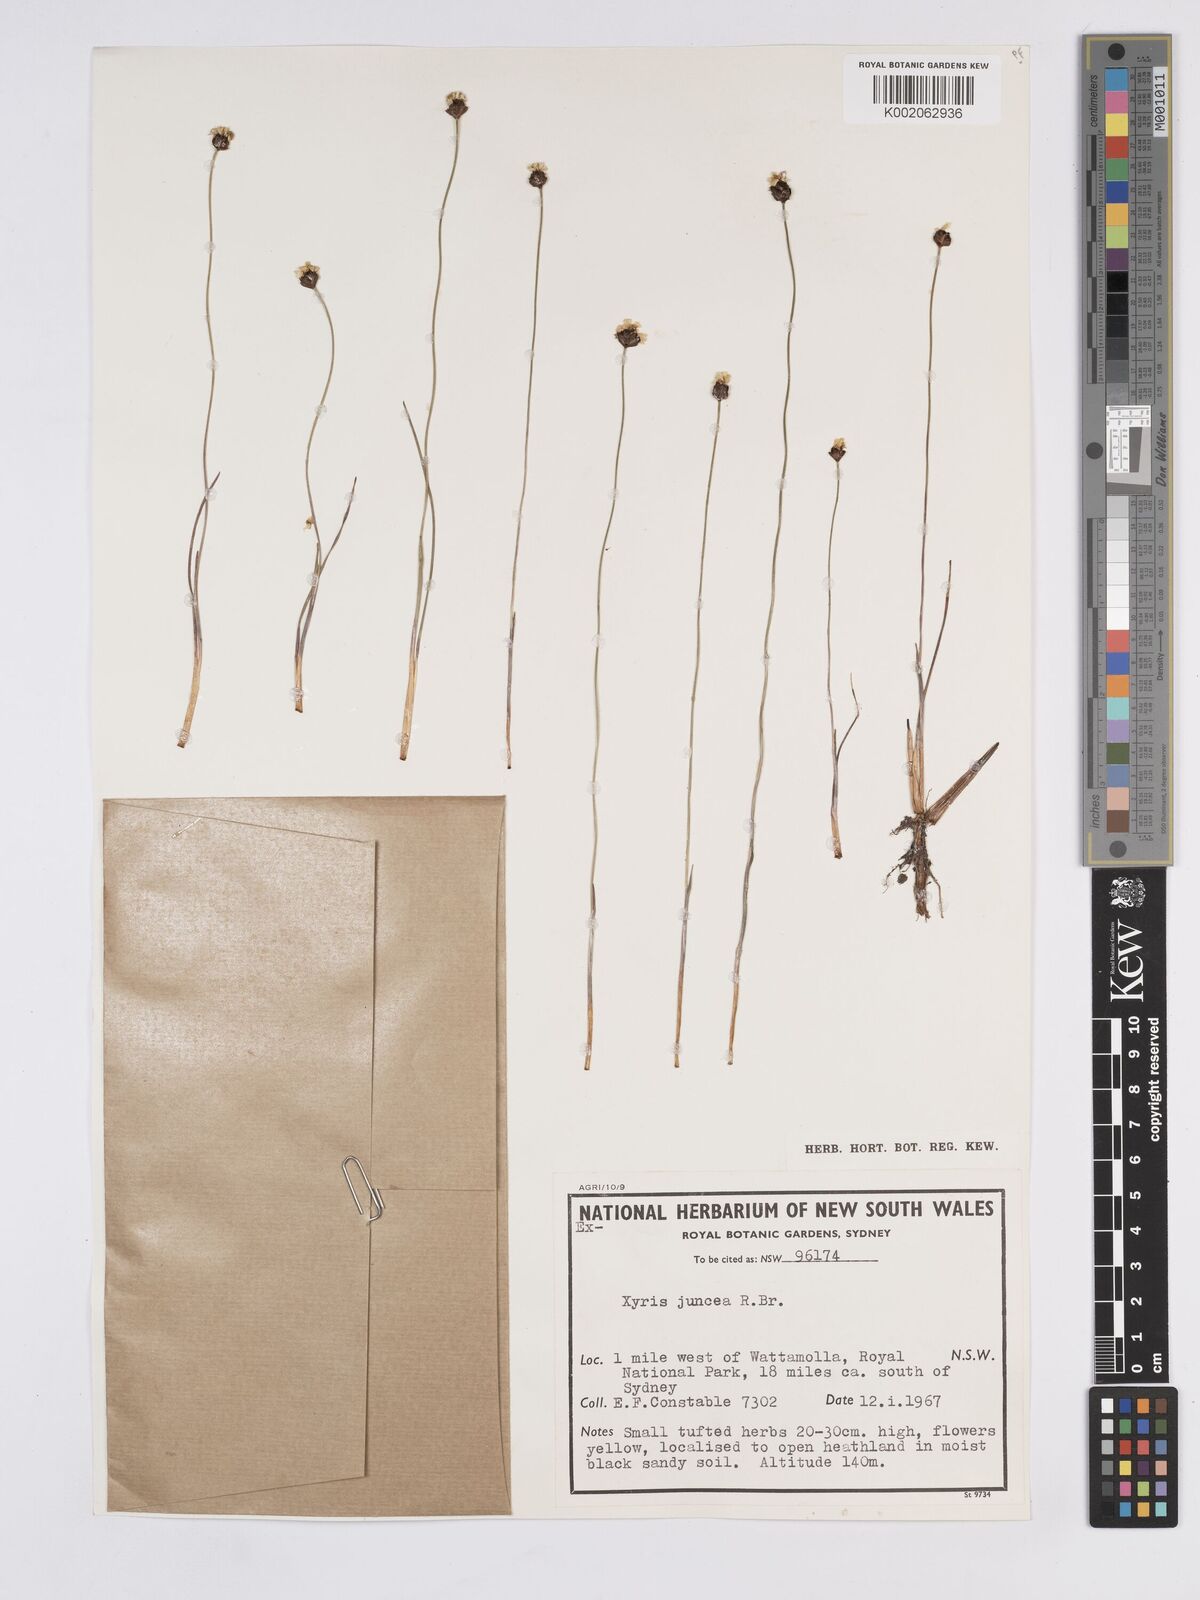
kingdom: Plantae
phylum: Tracheophyta
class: Liliopsida
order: Poales
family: Xyridaceae
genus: Xyris
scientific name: Xyris juncea
